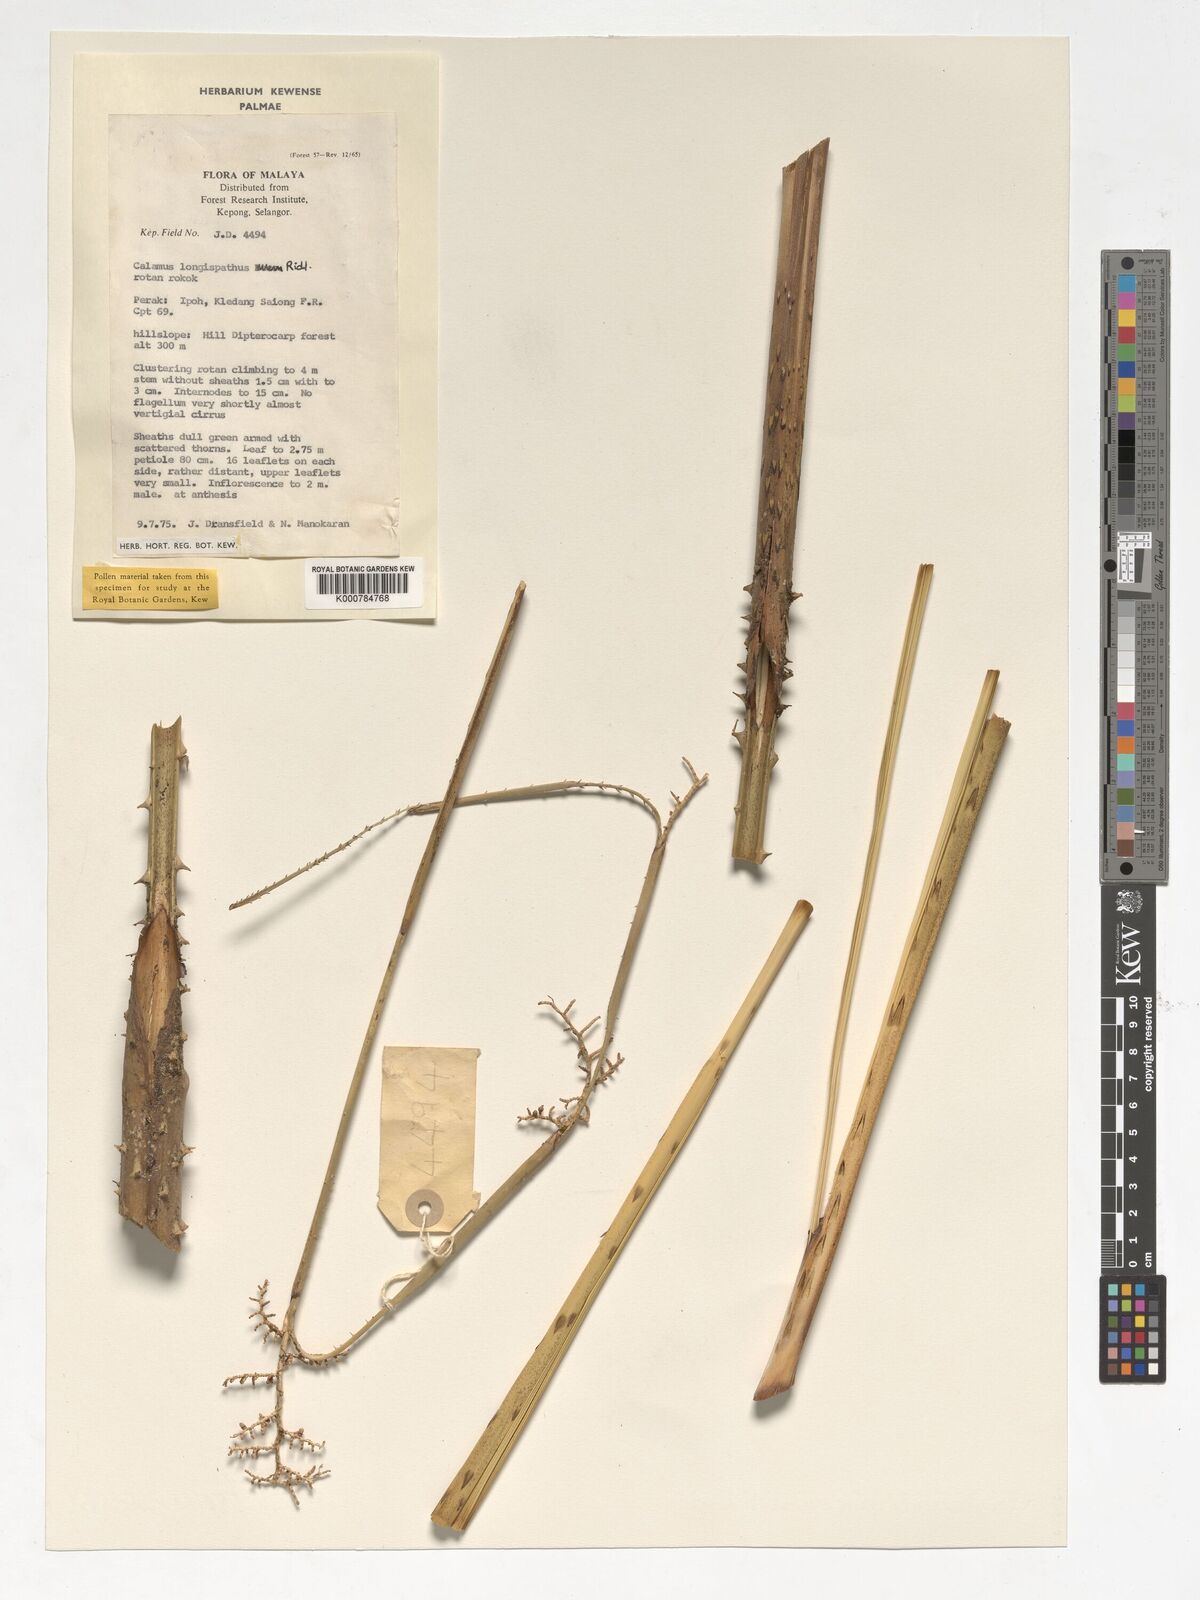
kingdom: Plantae
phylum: Tracheophyta
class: Liliopsida
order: Arecales
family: Arecaceae
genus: Calamus
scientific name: Calamus longispatha
